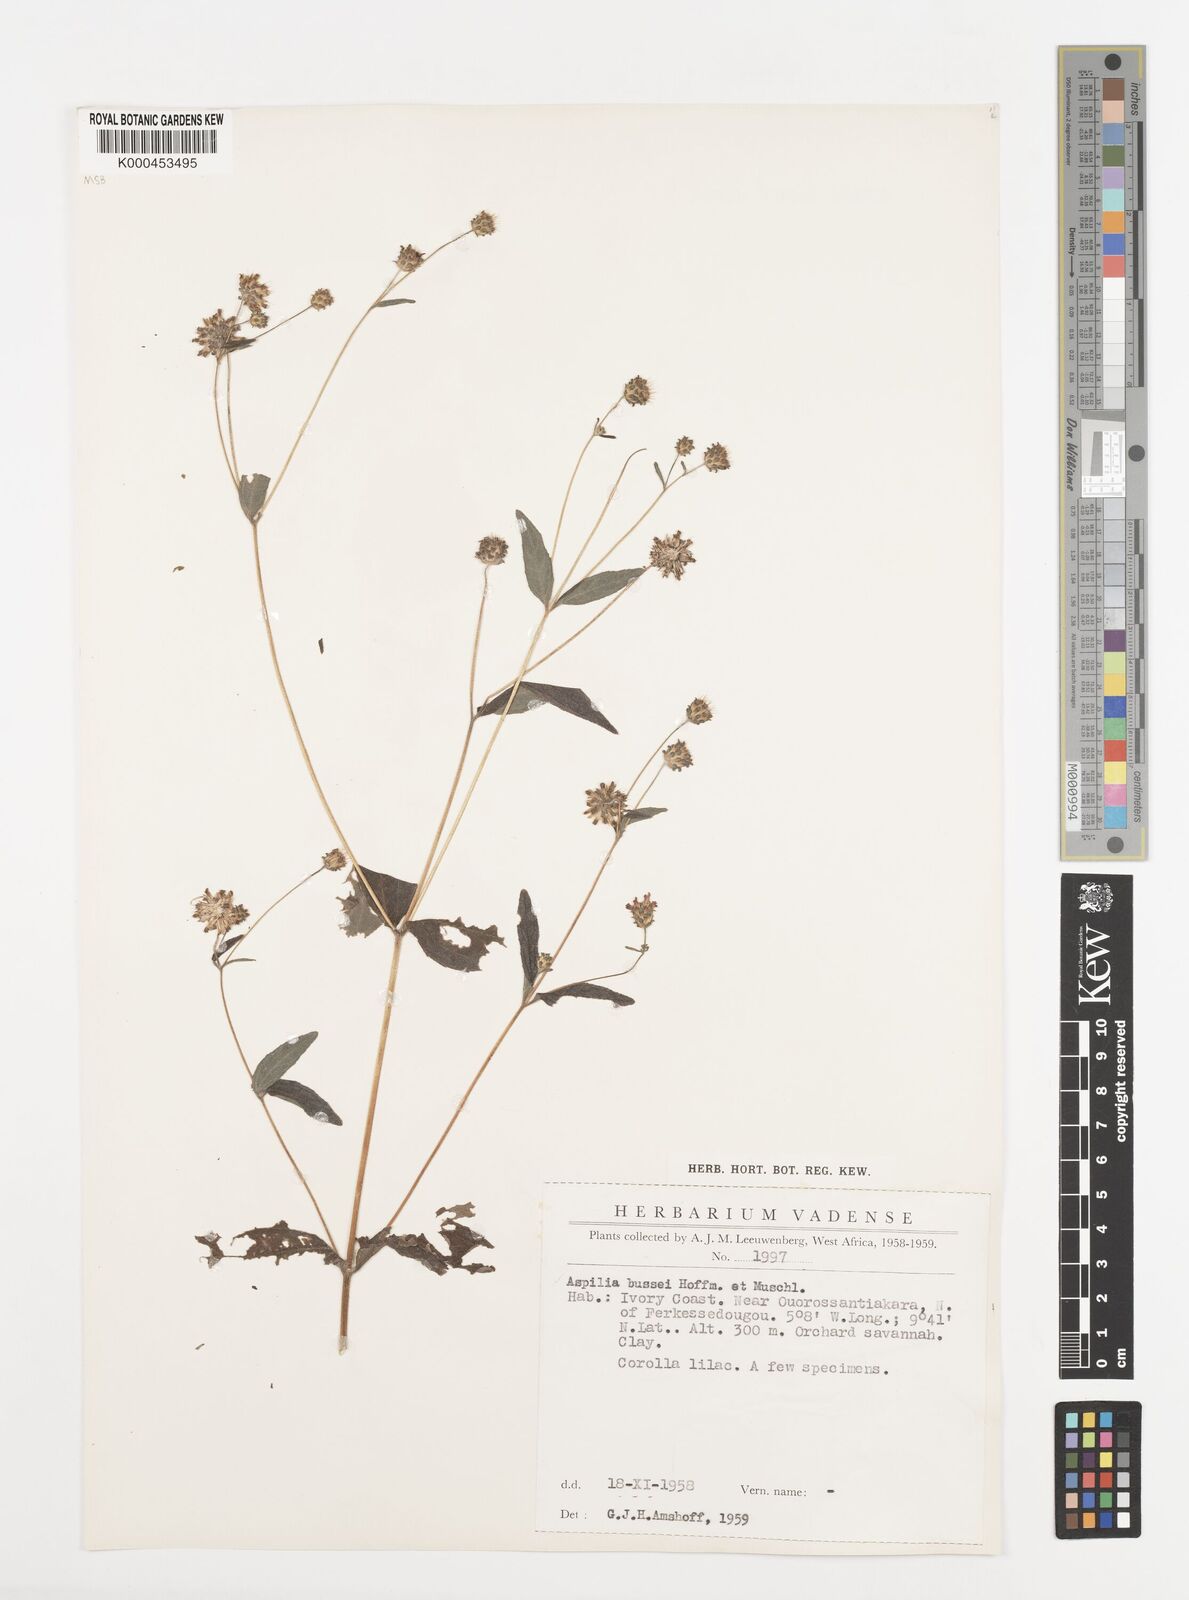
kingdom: Plantae
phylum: Tracheophyta
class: Magnoliopsida
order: Asterales
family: Asteraceae
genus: Aspilia
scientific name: Aspilia bussei
